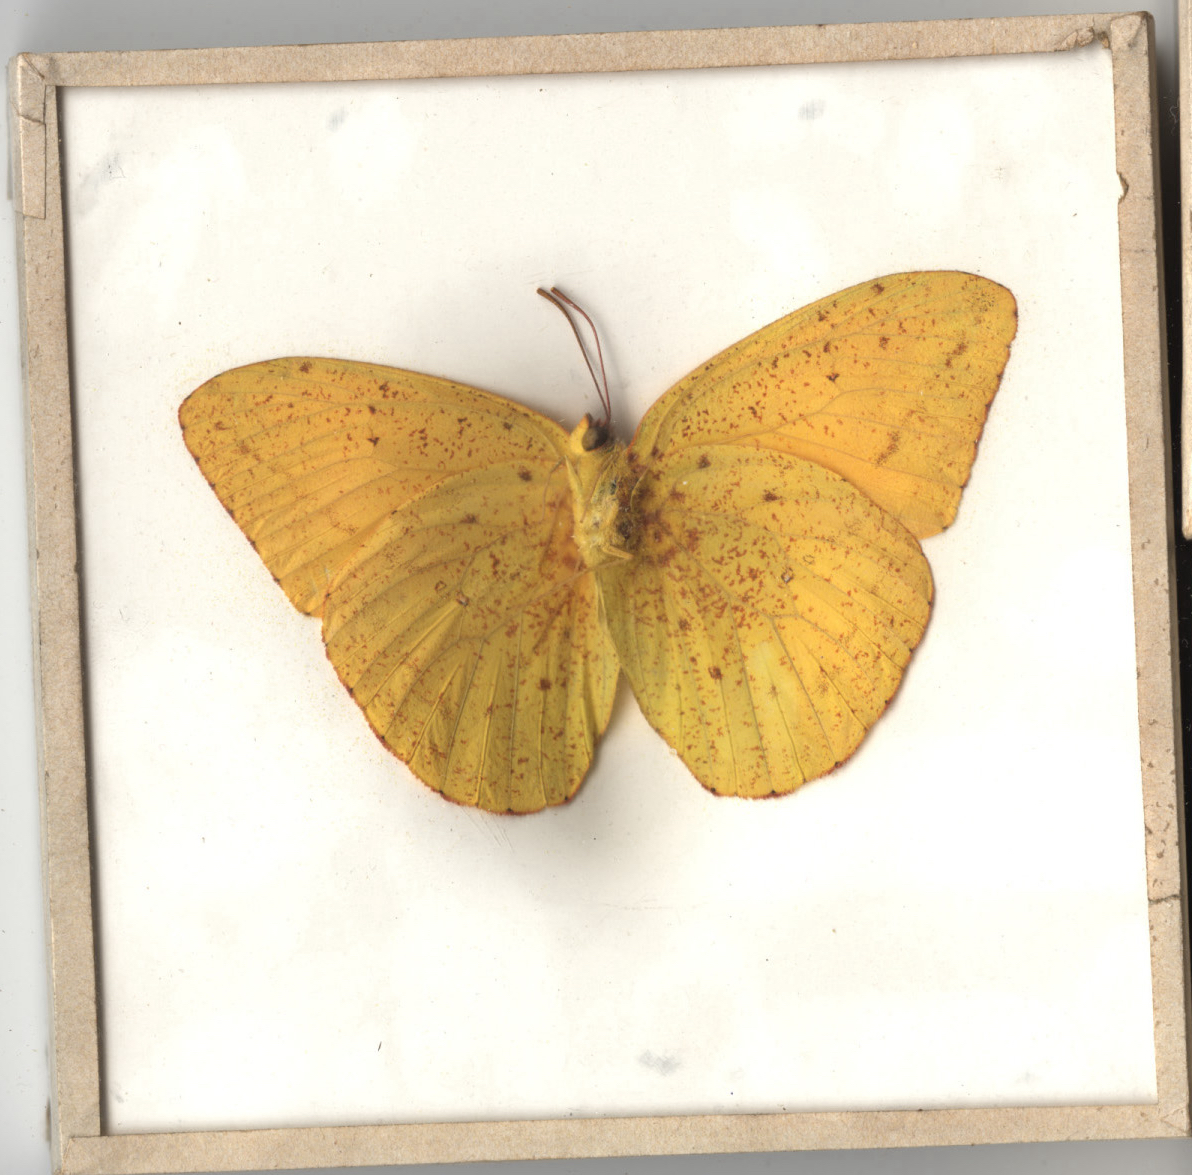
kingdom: Animalia
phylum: Arthropoda
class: Insecta
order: Lepidoptera
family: Pieridae
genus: Phoebis
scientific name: Phoebis agarithe
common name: Large Orange Sulphur
